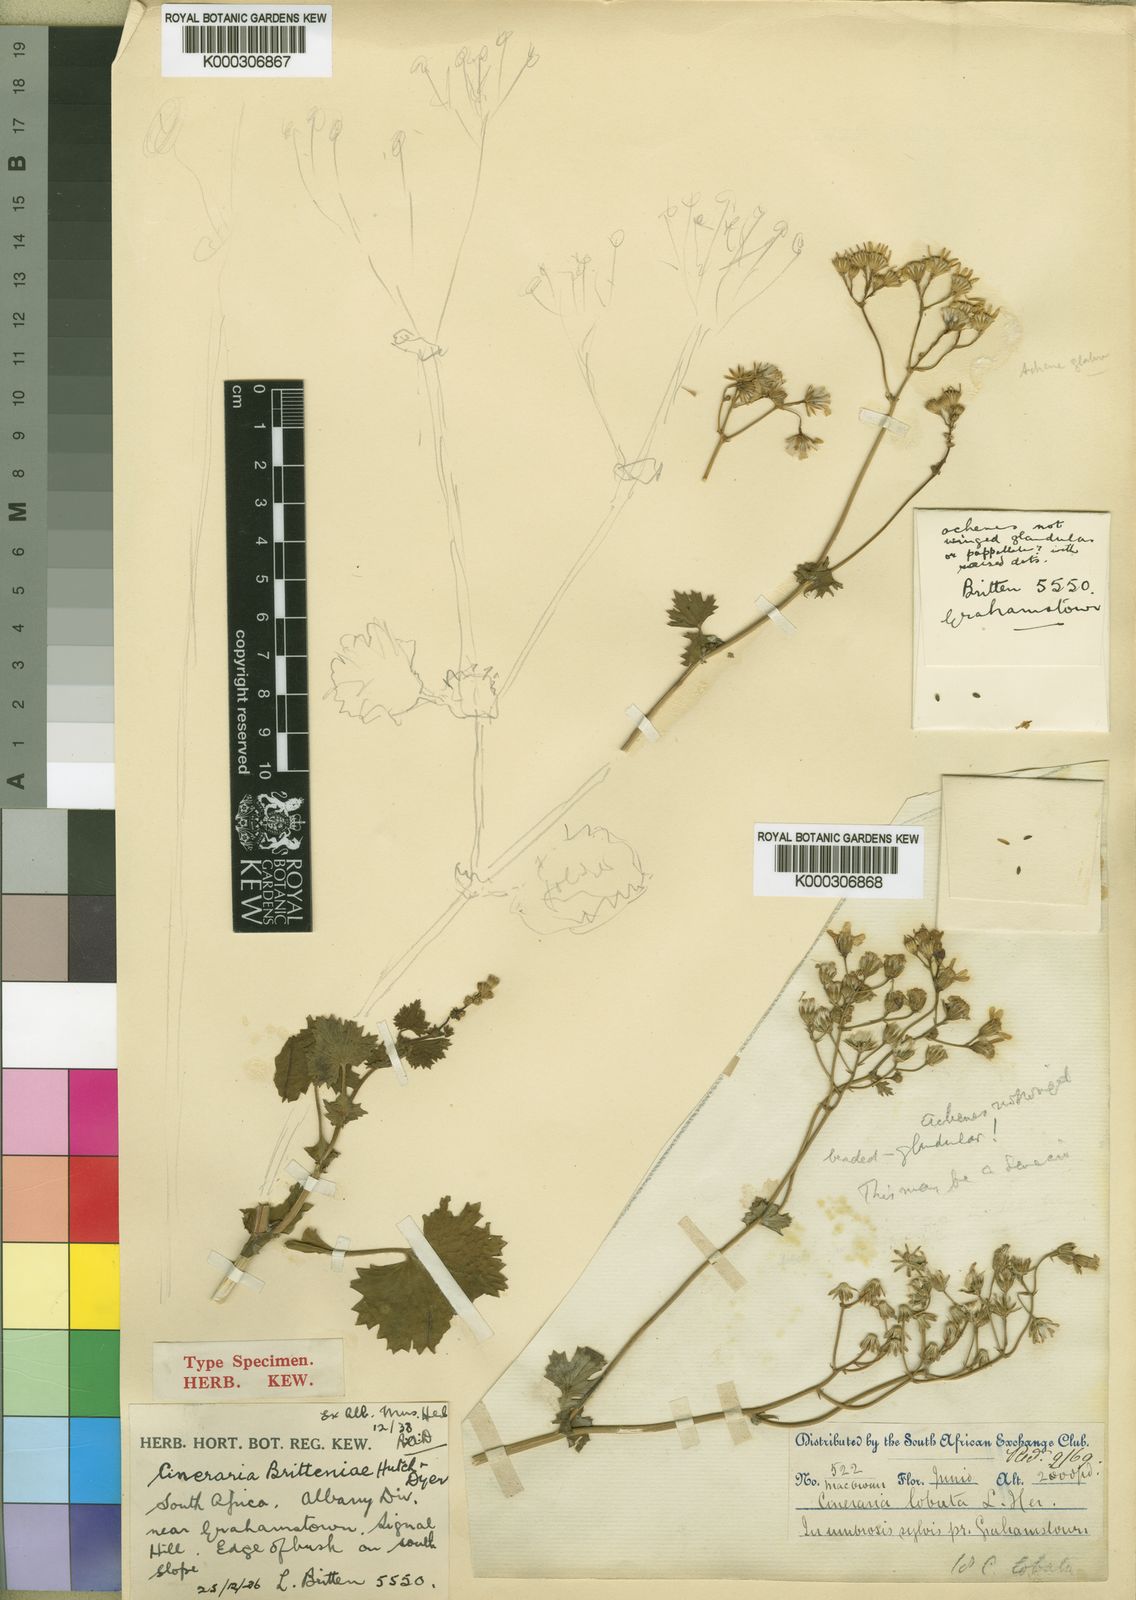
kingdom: Plantae
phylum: Tracheophyta
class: Magnoliopsida
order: Asterales
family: Asteraceae
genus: Cineraria
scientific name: Cineraria britteniae
